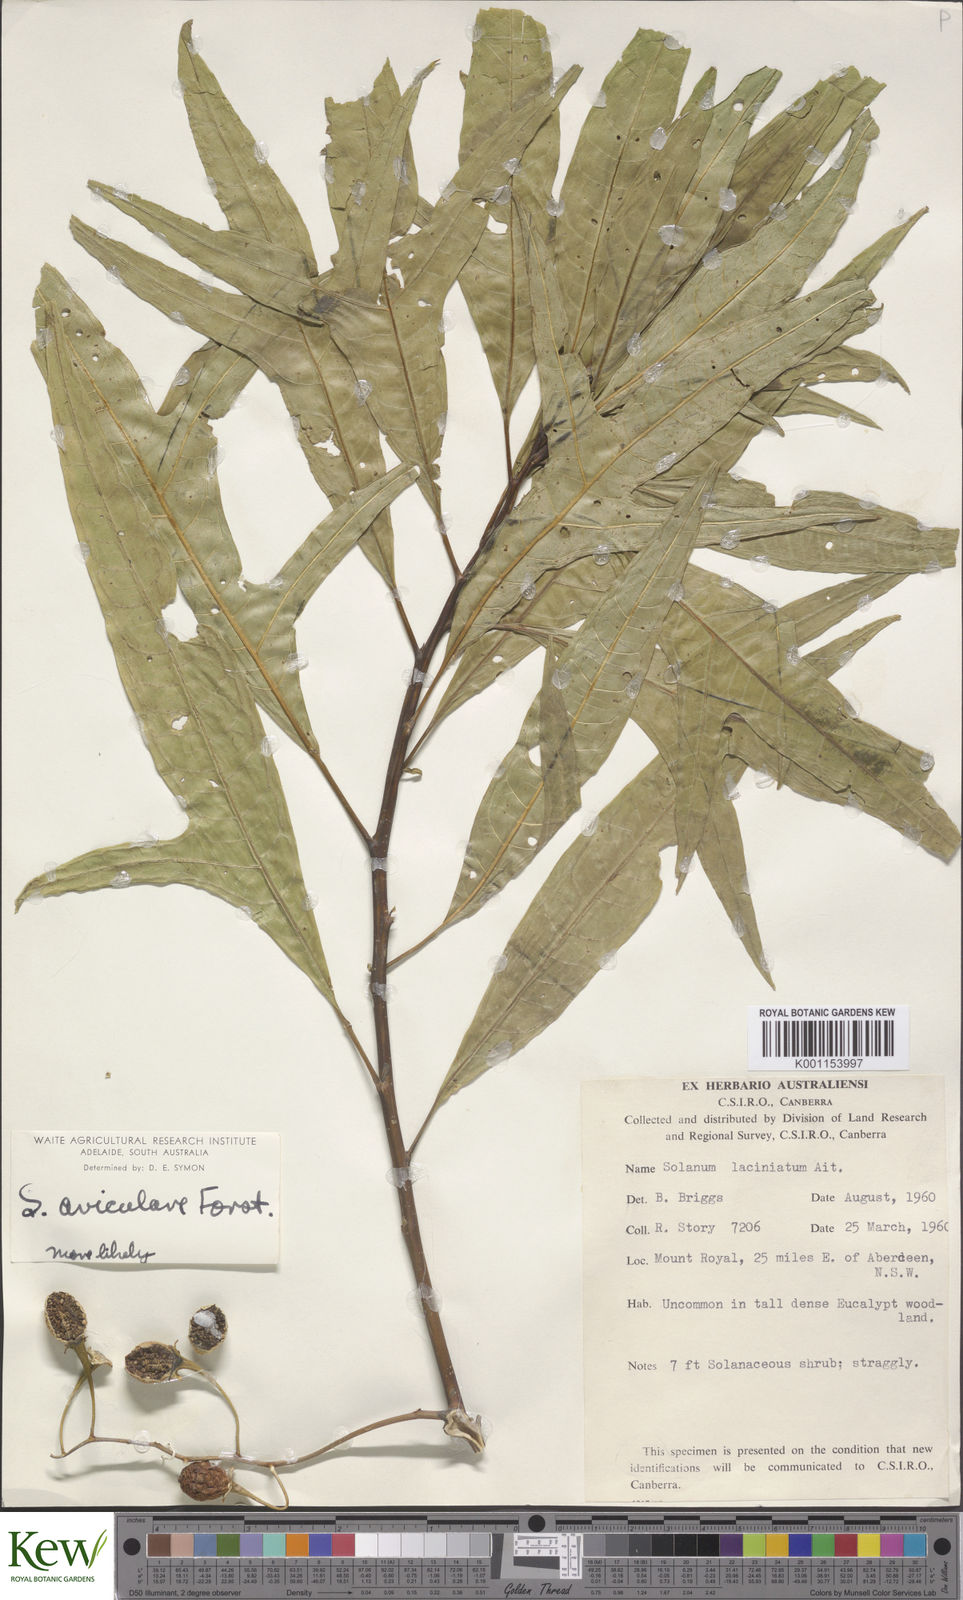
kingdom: Plantae
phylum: Tracheophyta
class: Magnoliopsida
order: Solanales
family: Solanaceae
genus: Solanum
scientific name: Solanum aviculare
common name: New zealand nightshade
